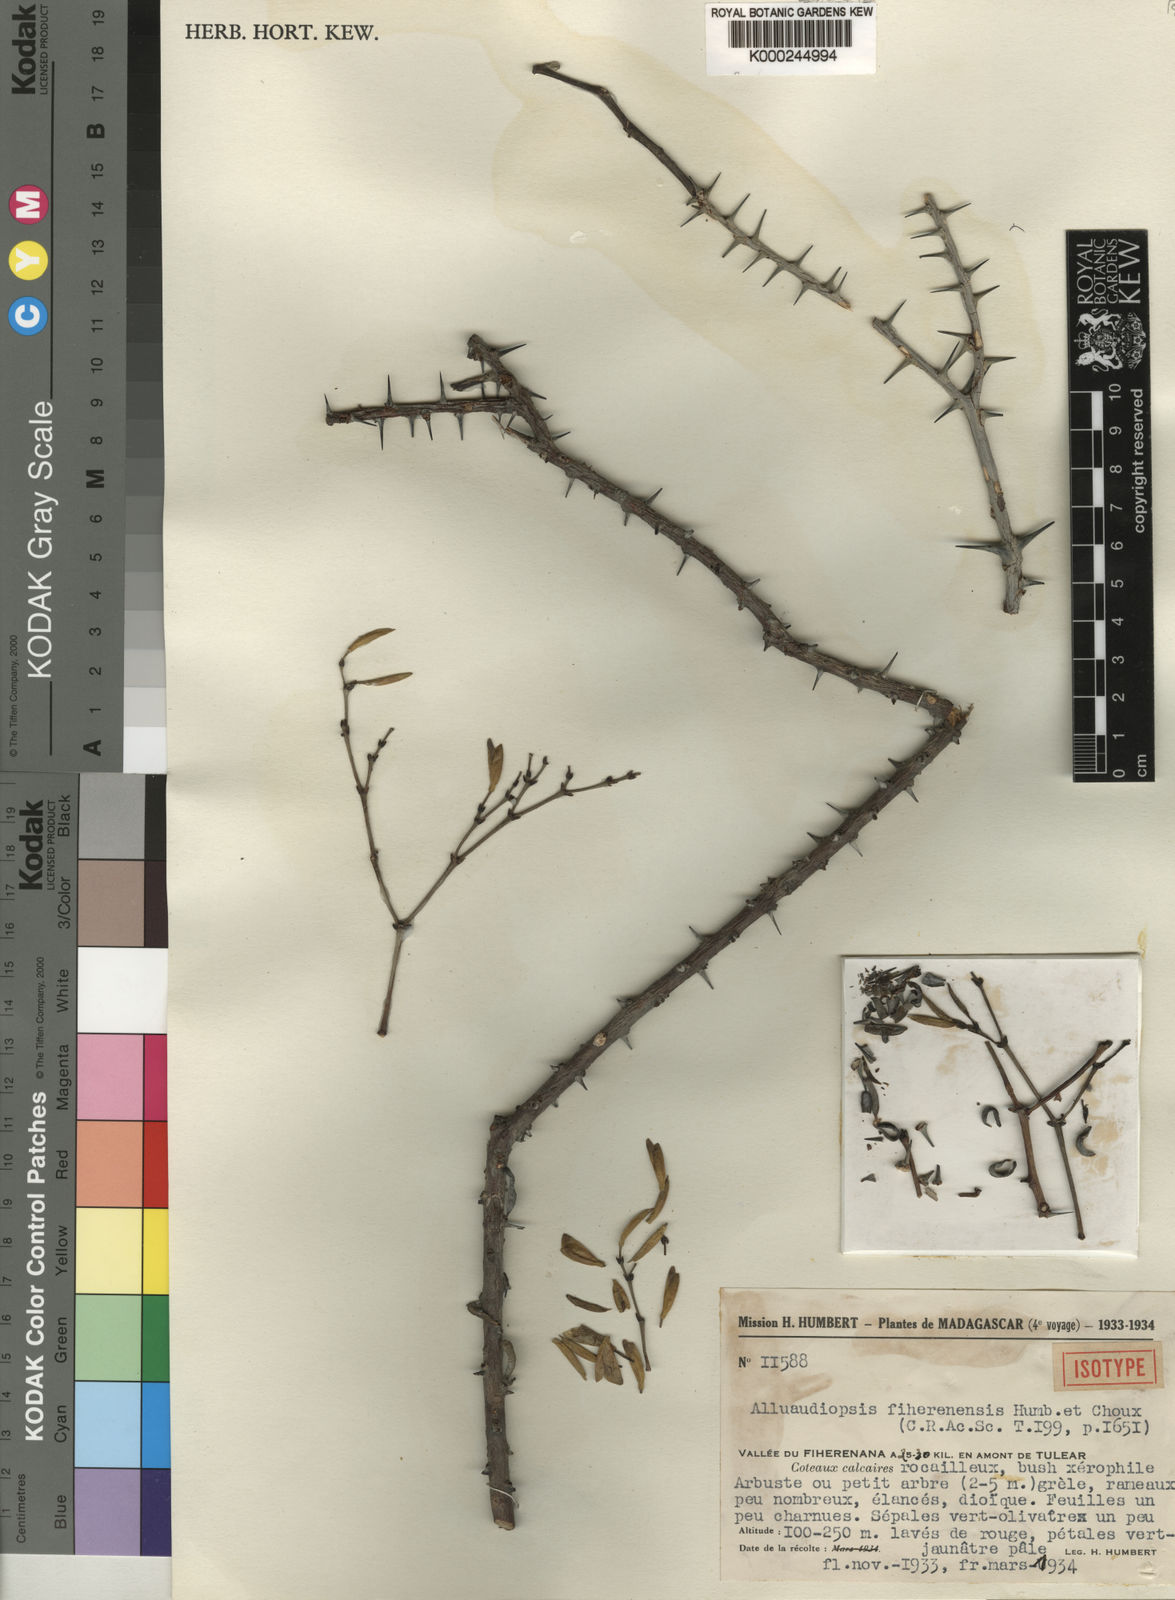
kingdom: Plantae
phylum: Tracheophyta
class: Magnoliopsida
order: Caryophyllales
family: Didiereaceae
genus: Alluaudiopsis
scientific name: Alluaudiopsis fiherenensis
